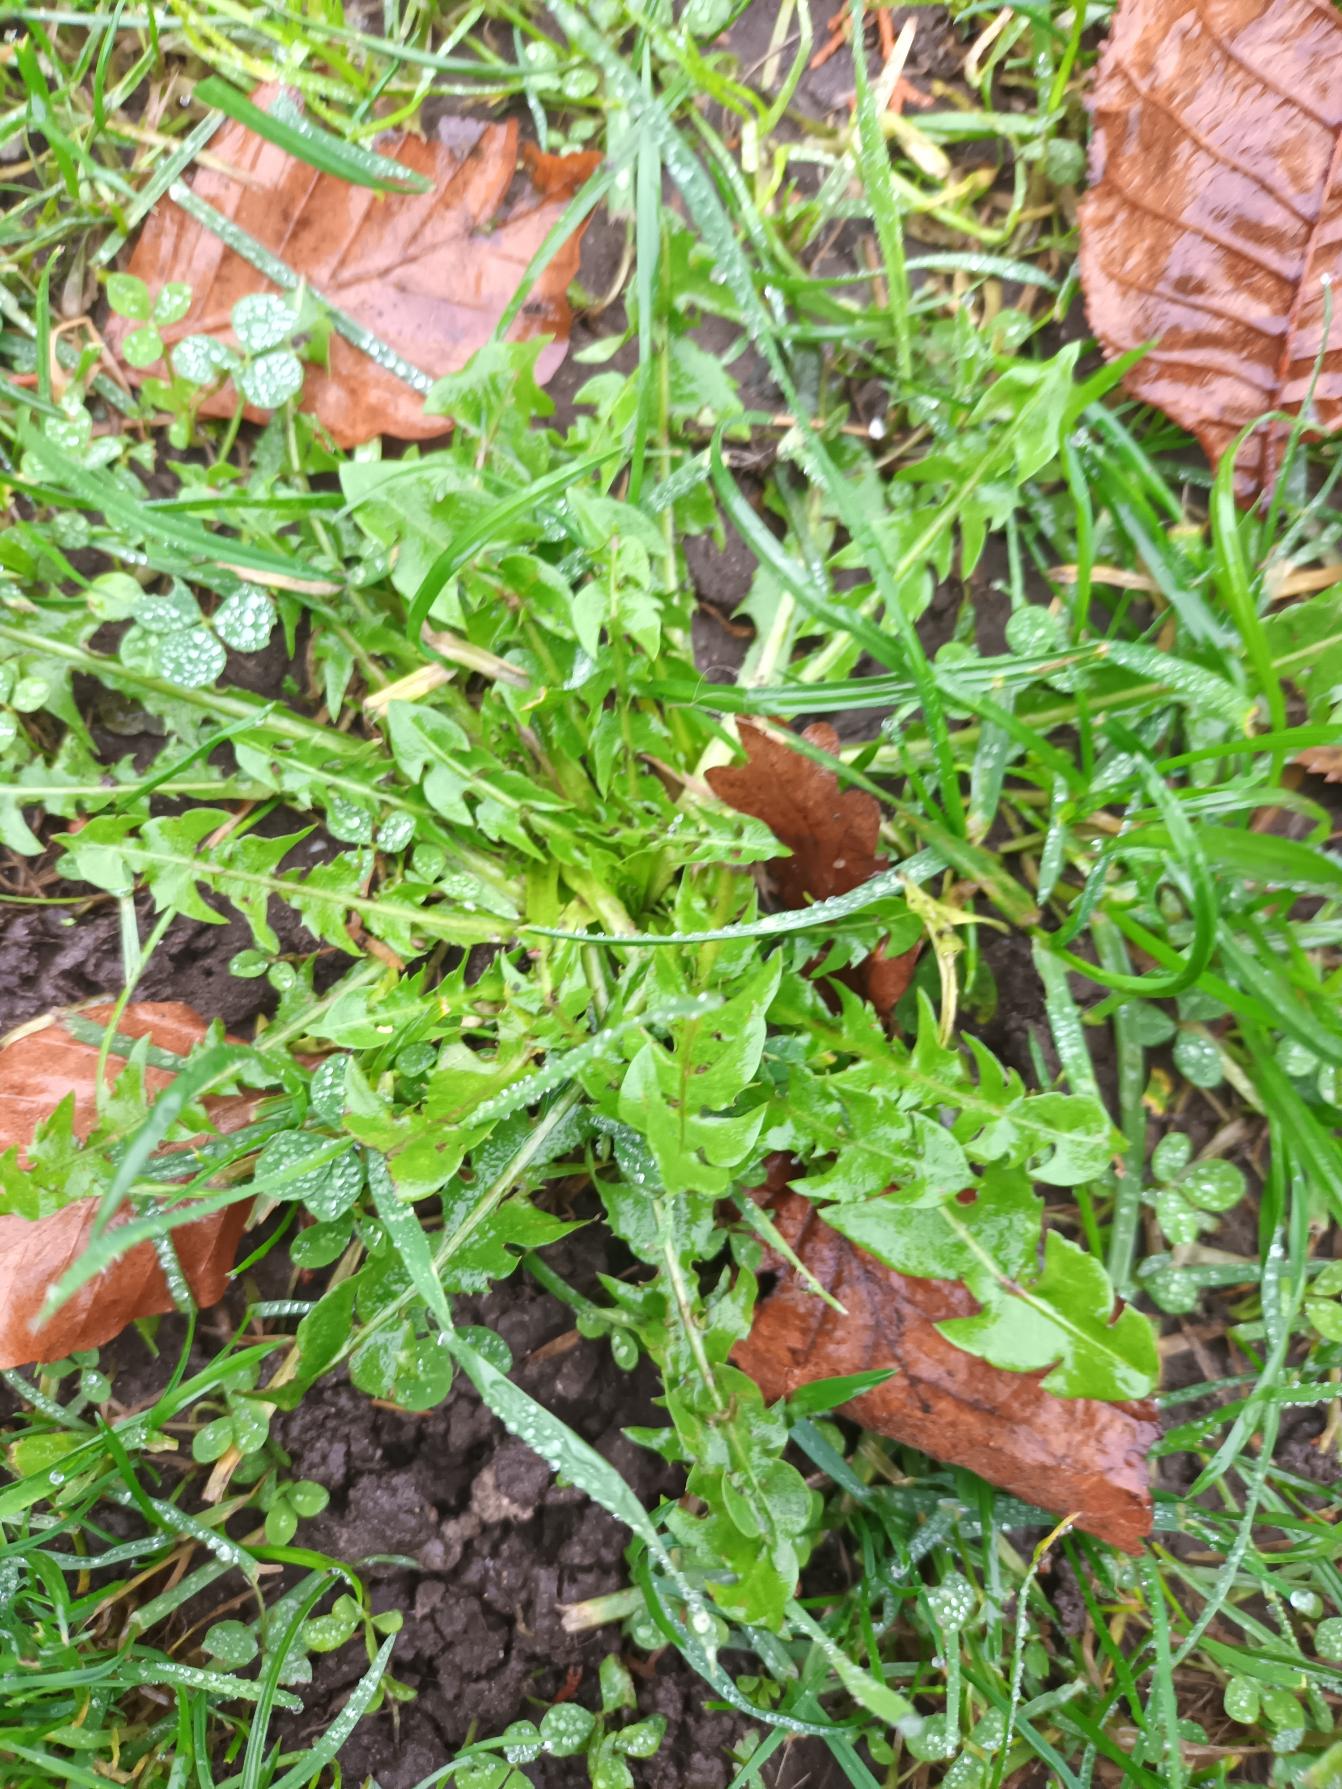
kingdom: Plantae
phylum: Tracheophyta
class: Magnoliopsida
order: Asterales
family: Asteraceae
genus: Taraxacum
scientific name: Taraxacum
